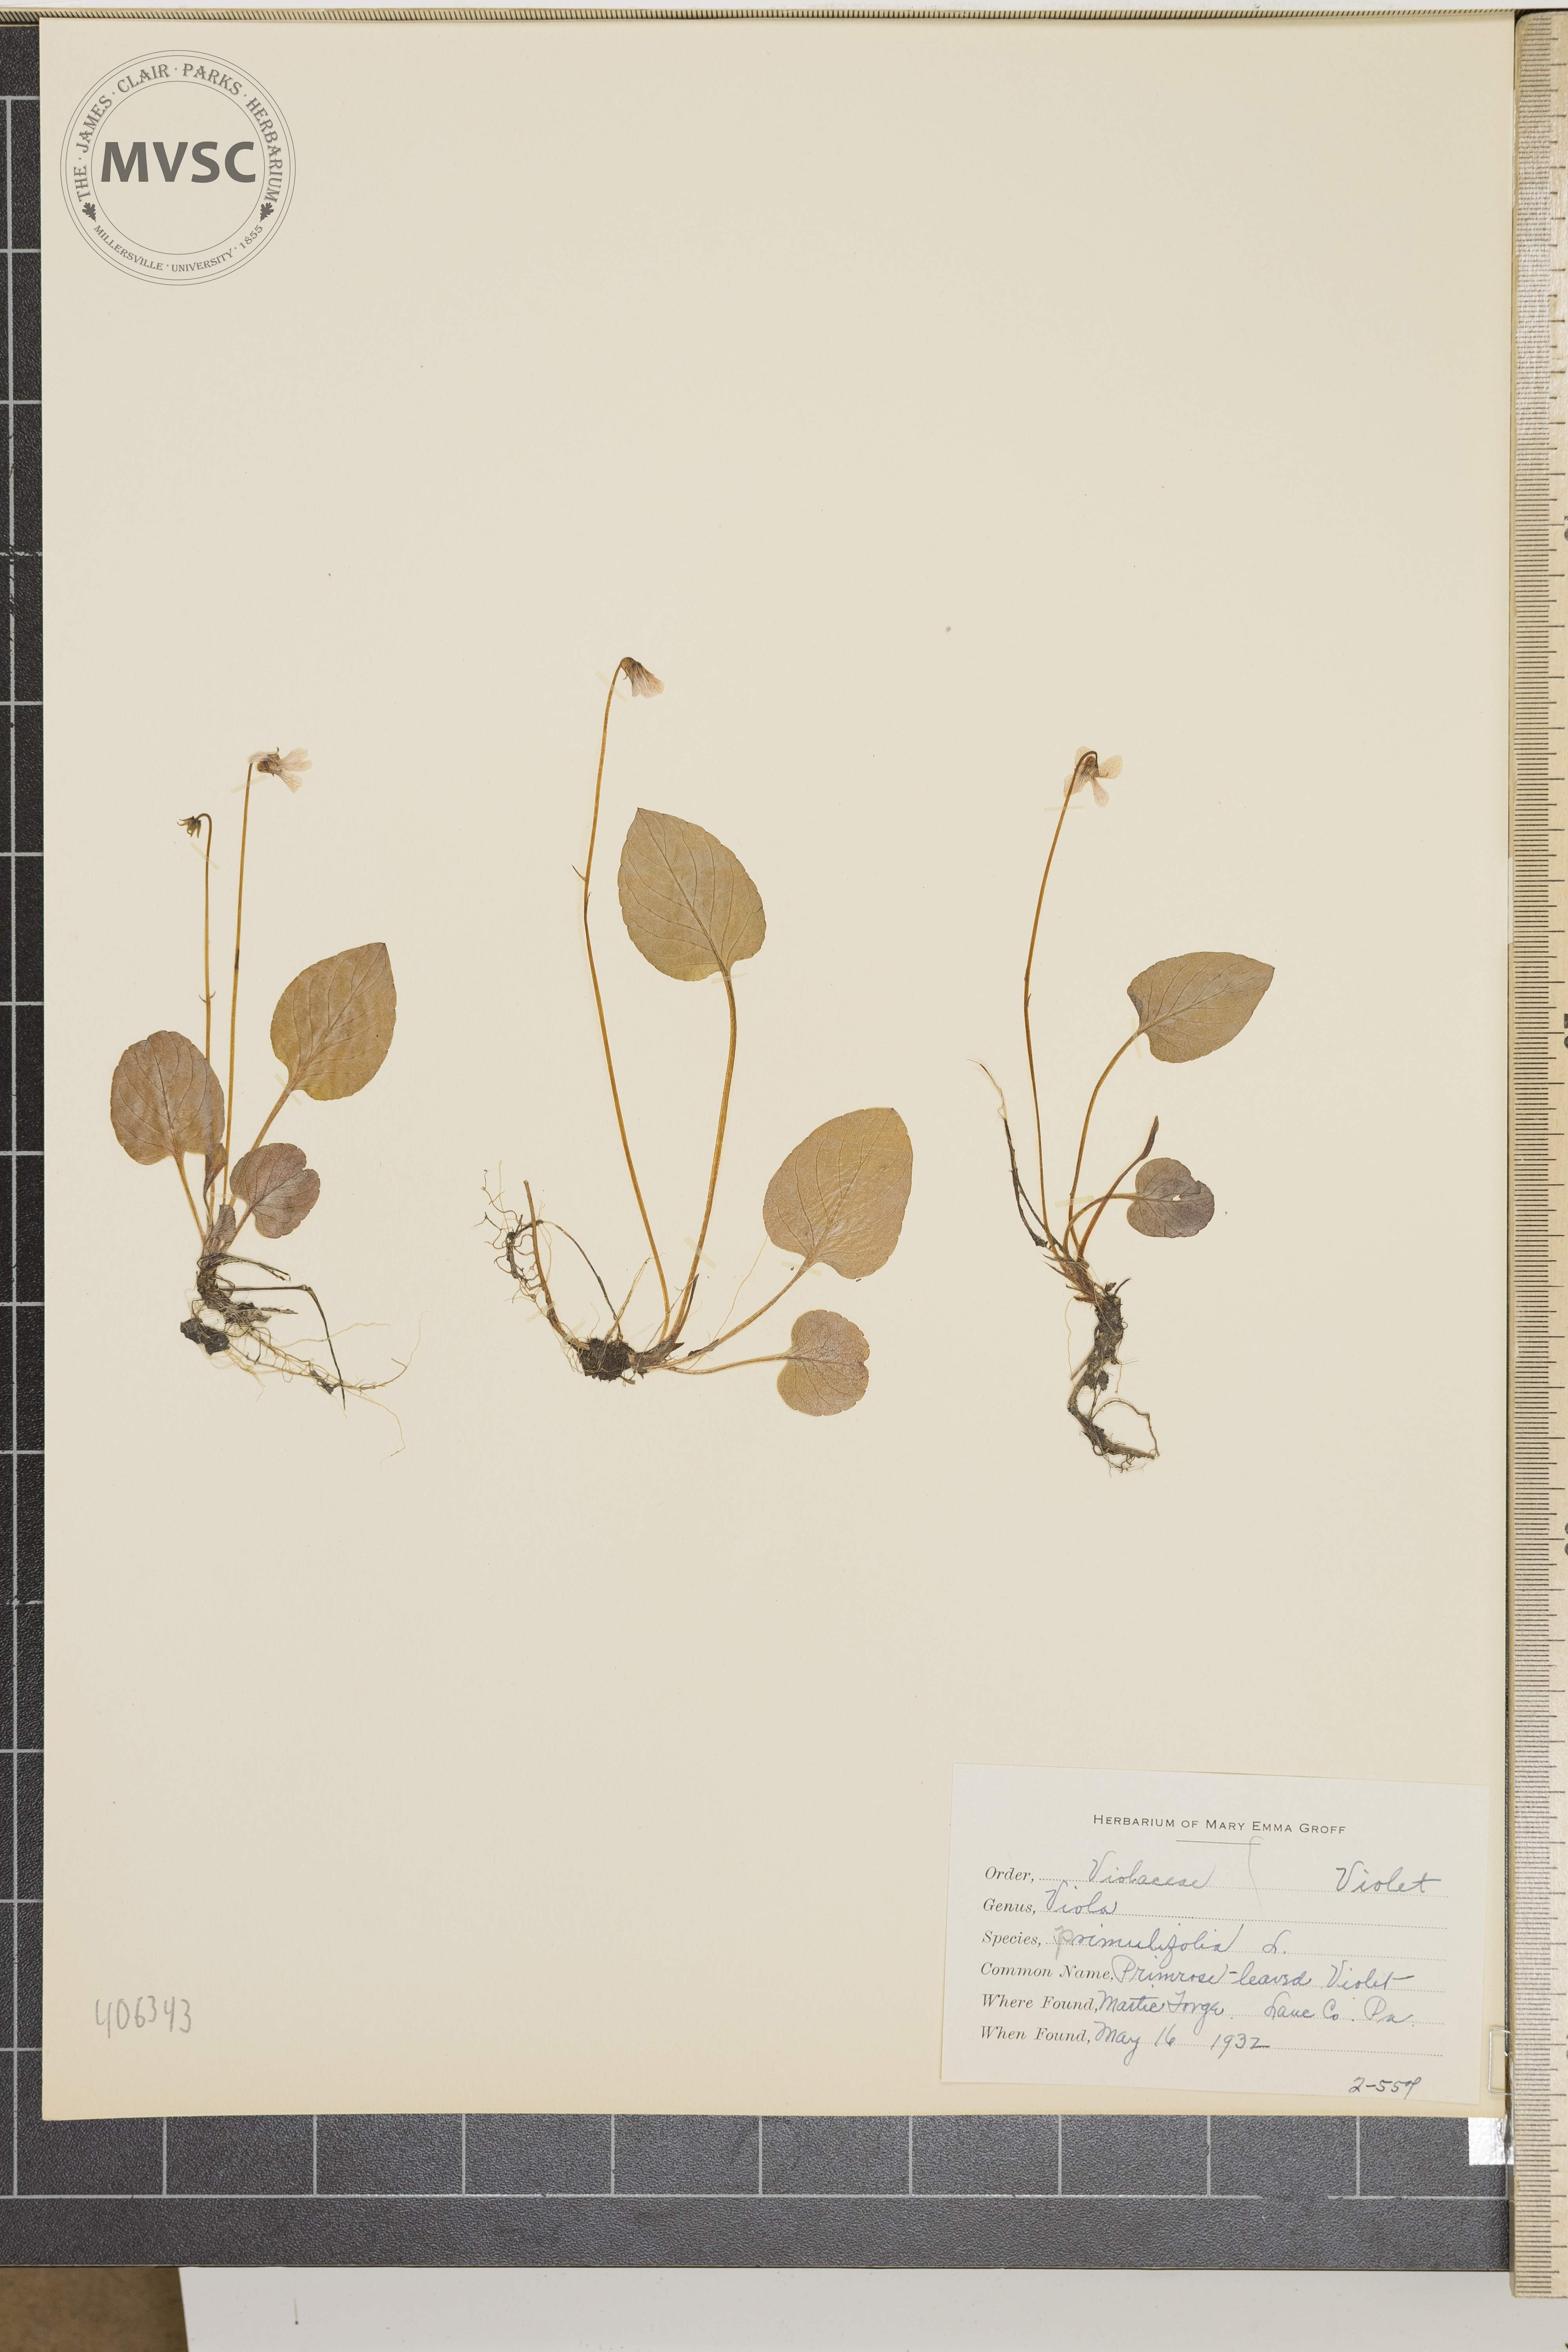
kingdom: Plantae
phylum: Tracheophyta
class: Magnoliopsida
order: Malpighiales
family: Violaceae
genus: Viola
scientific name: Viola primulifolia
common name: Primrose-leaved violet
